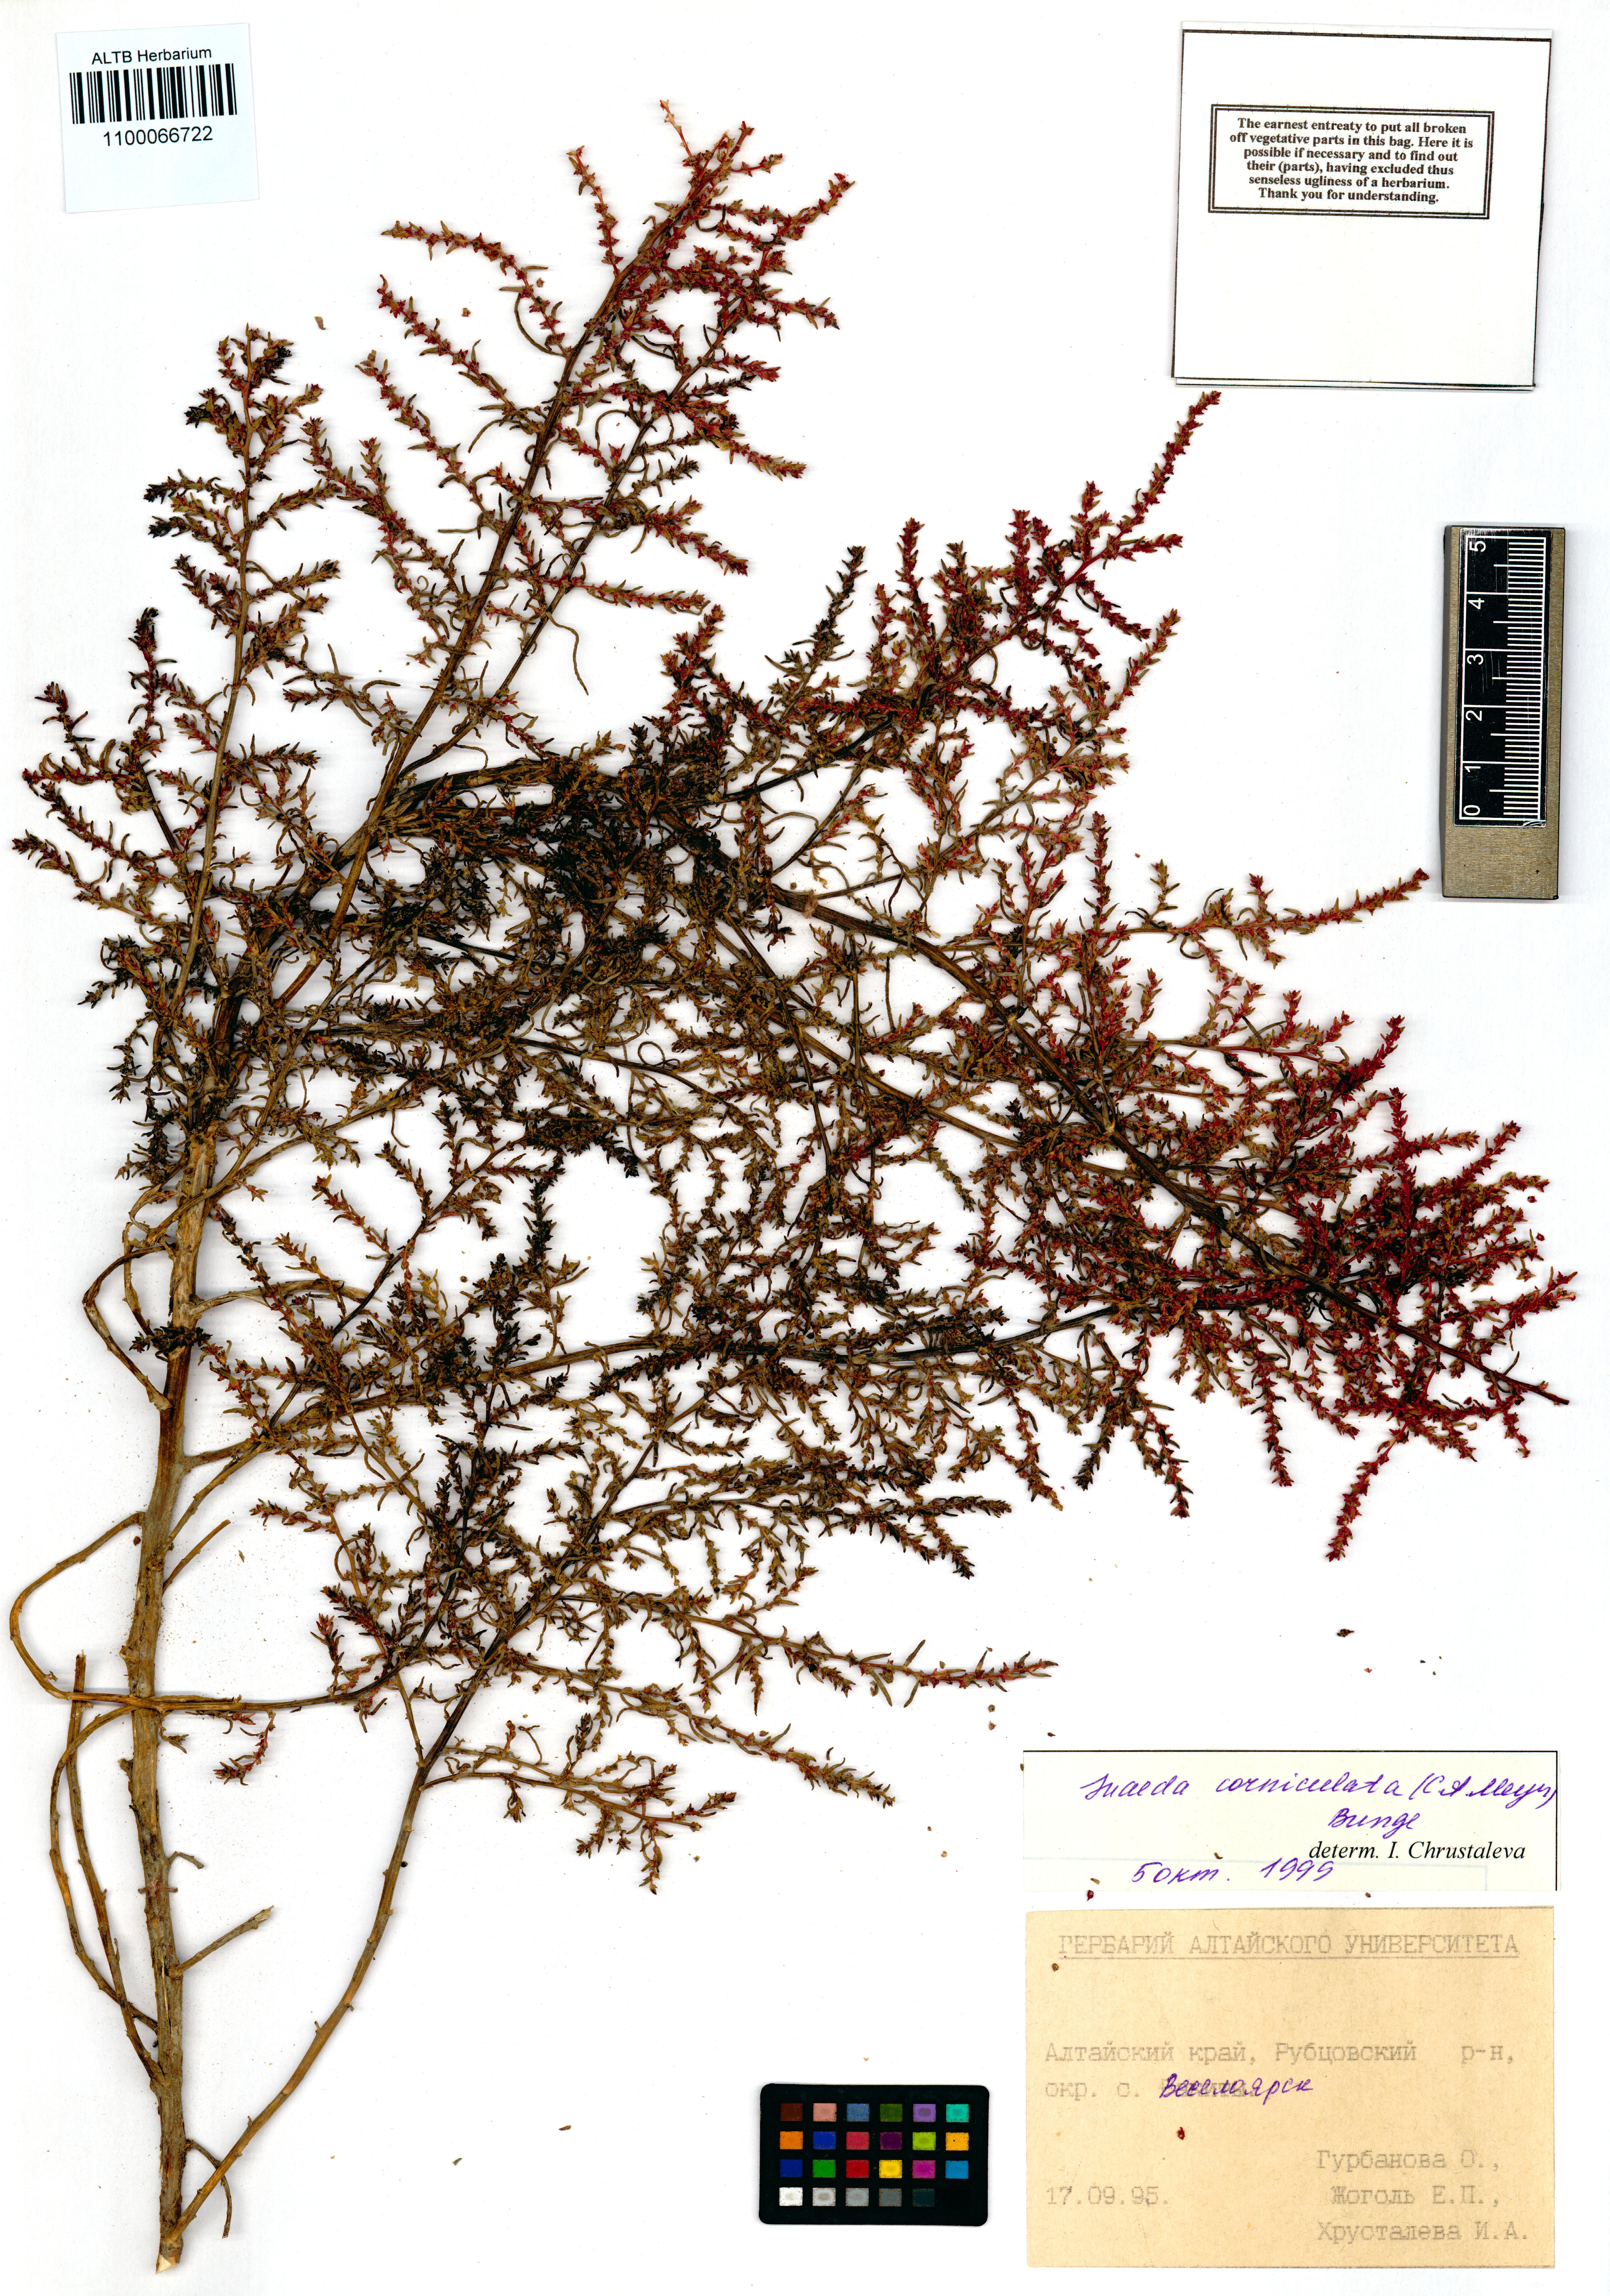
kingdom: Plantae
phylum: Tracheophyta
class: Magnoliopsida
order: Caryophyllales
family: Amaranthaceae
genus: Suaeda
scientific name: Suaeda corniculata
